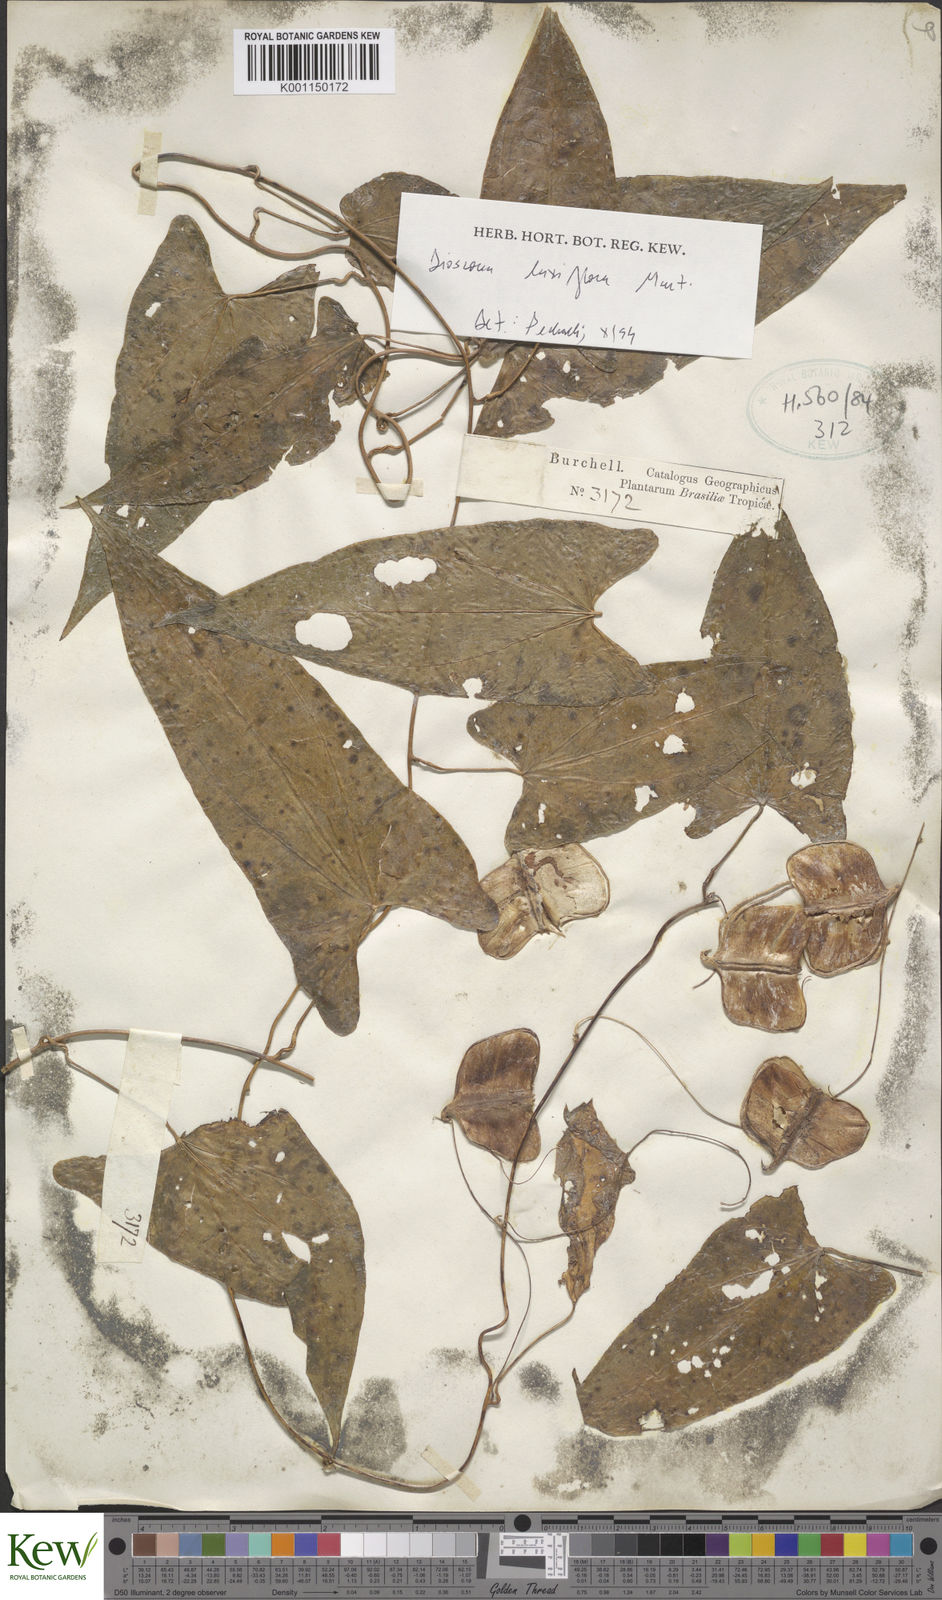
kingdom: Plantae
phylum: Tracheophyta
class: Liliopsida
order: Dioscoreales
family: Dioscoreaceae
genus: Dioscorea
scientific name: Dioscorea
